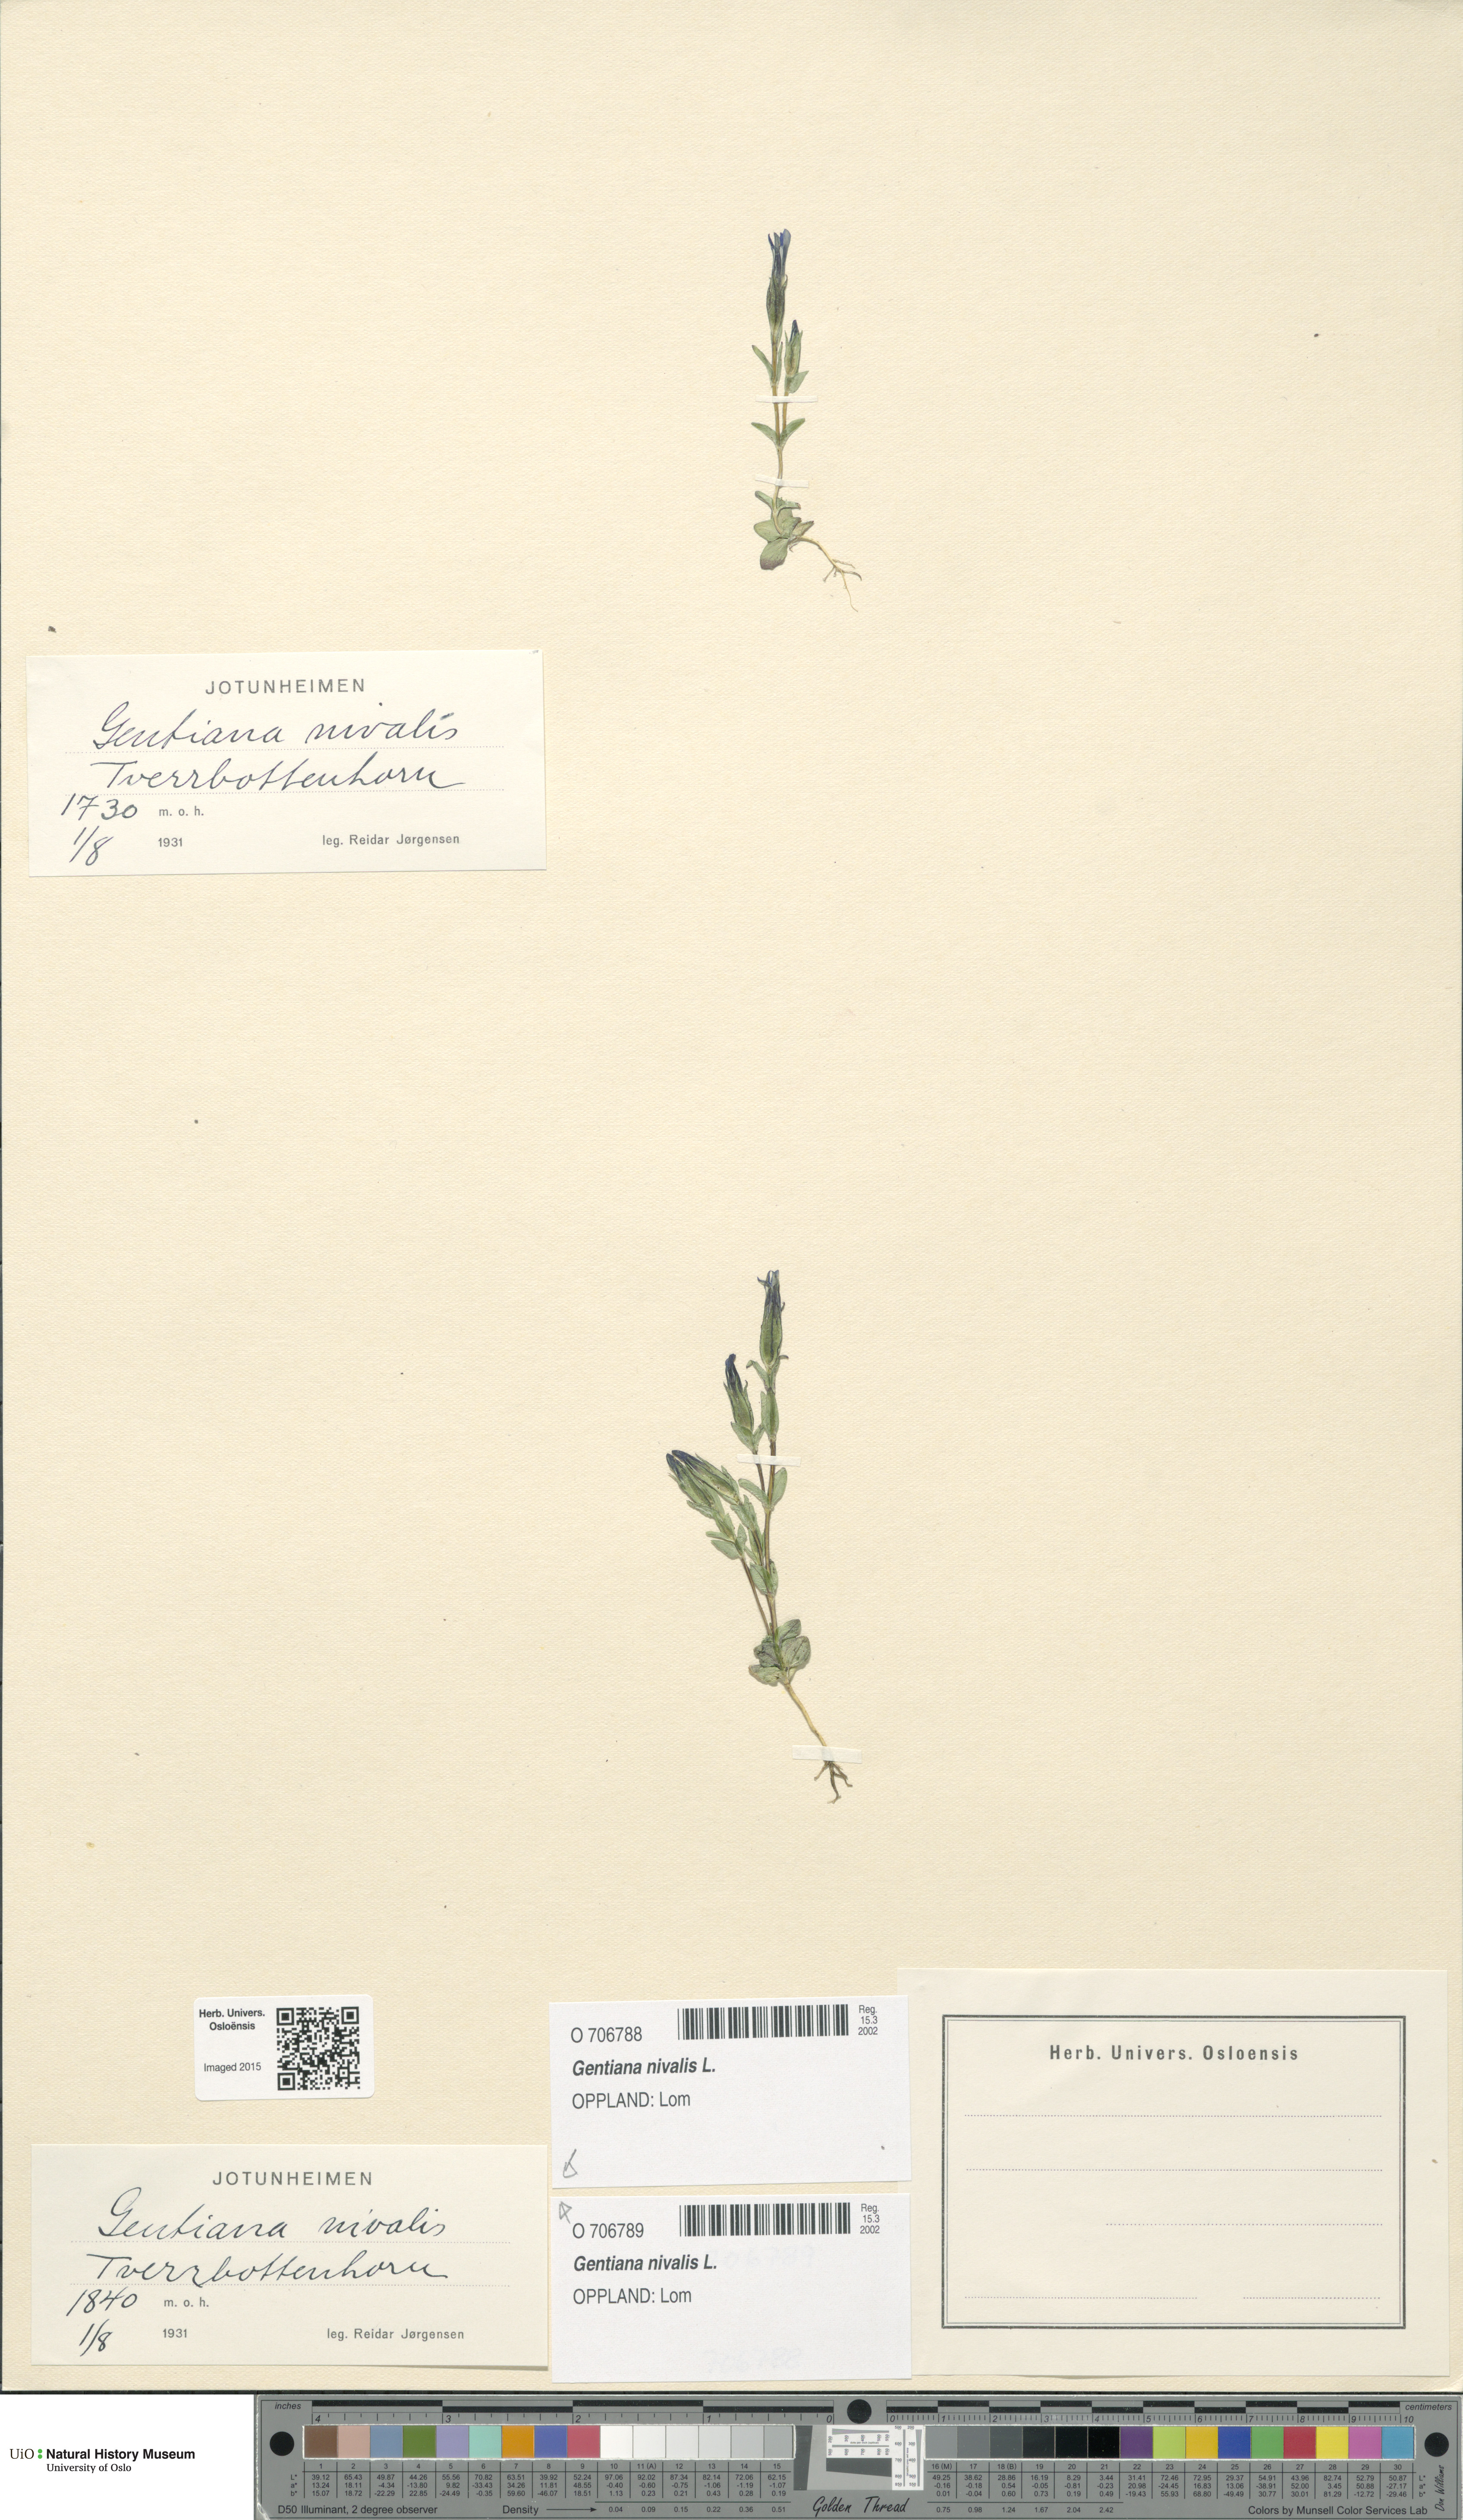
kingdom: Plantae
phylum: Tracheophyta
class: Magnoliopsida
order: Gentianales
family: Gentianaceae
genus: Gentiana
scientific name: Gentiana nivalis
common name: Alpine gentian
